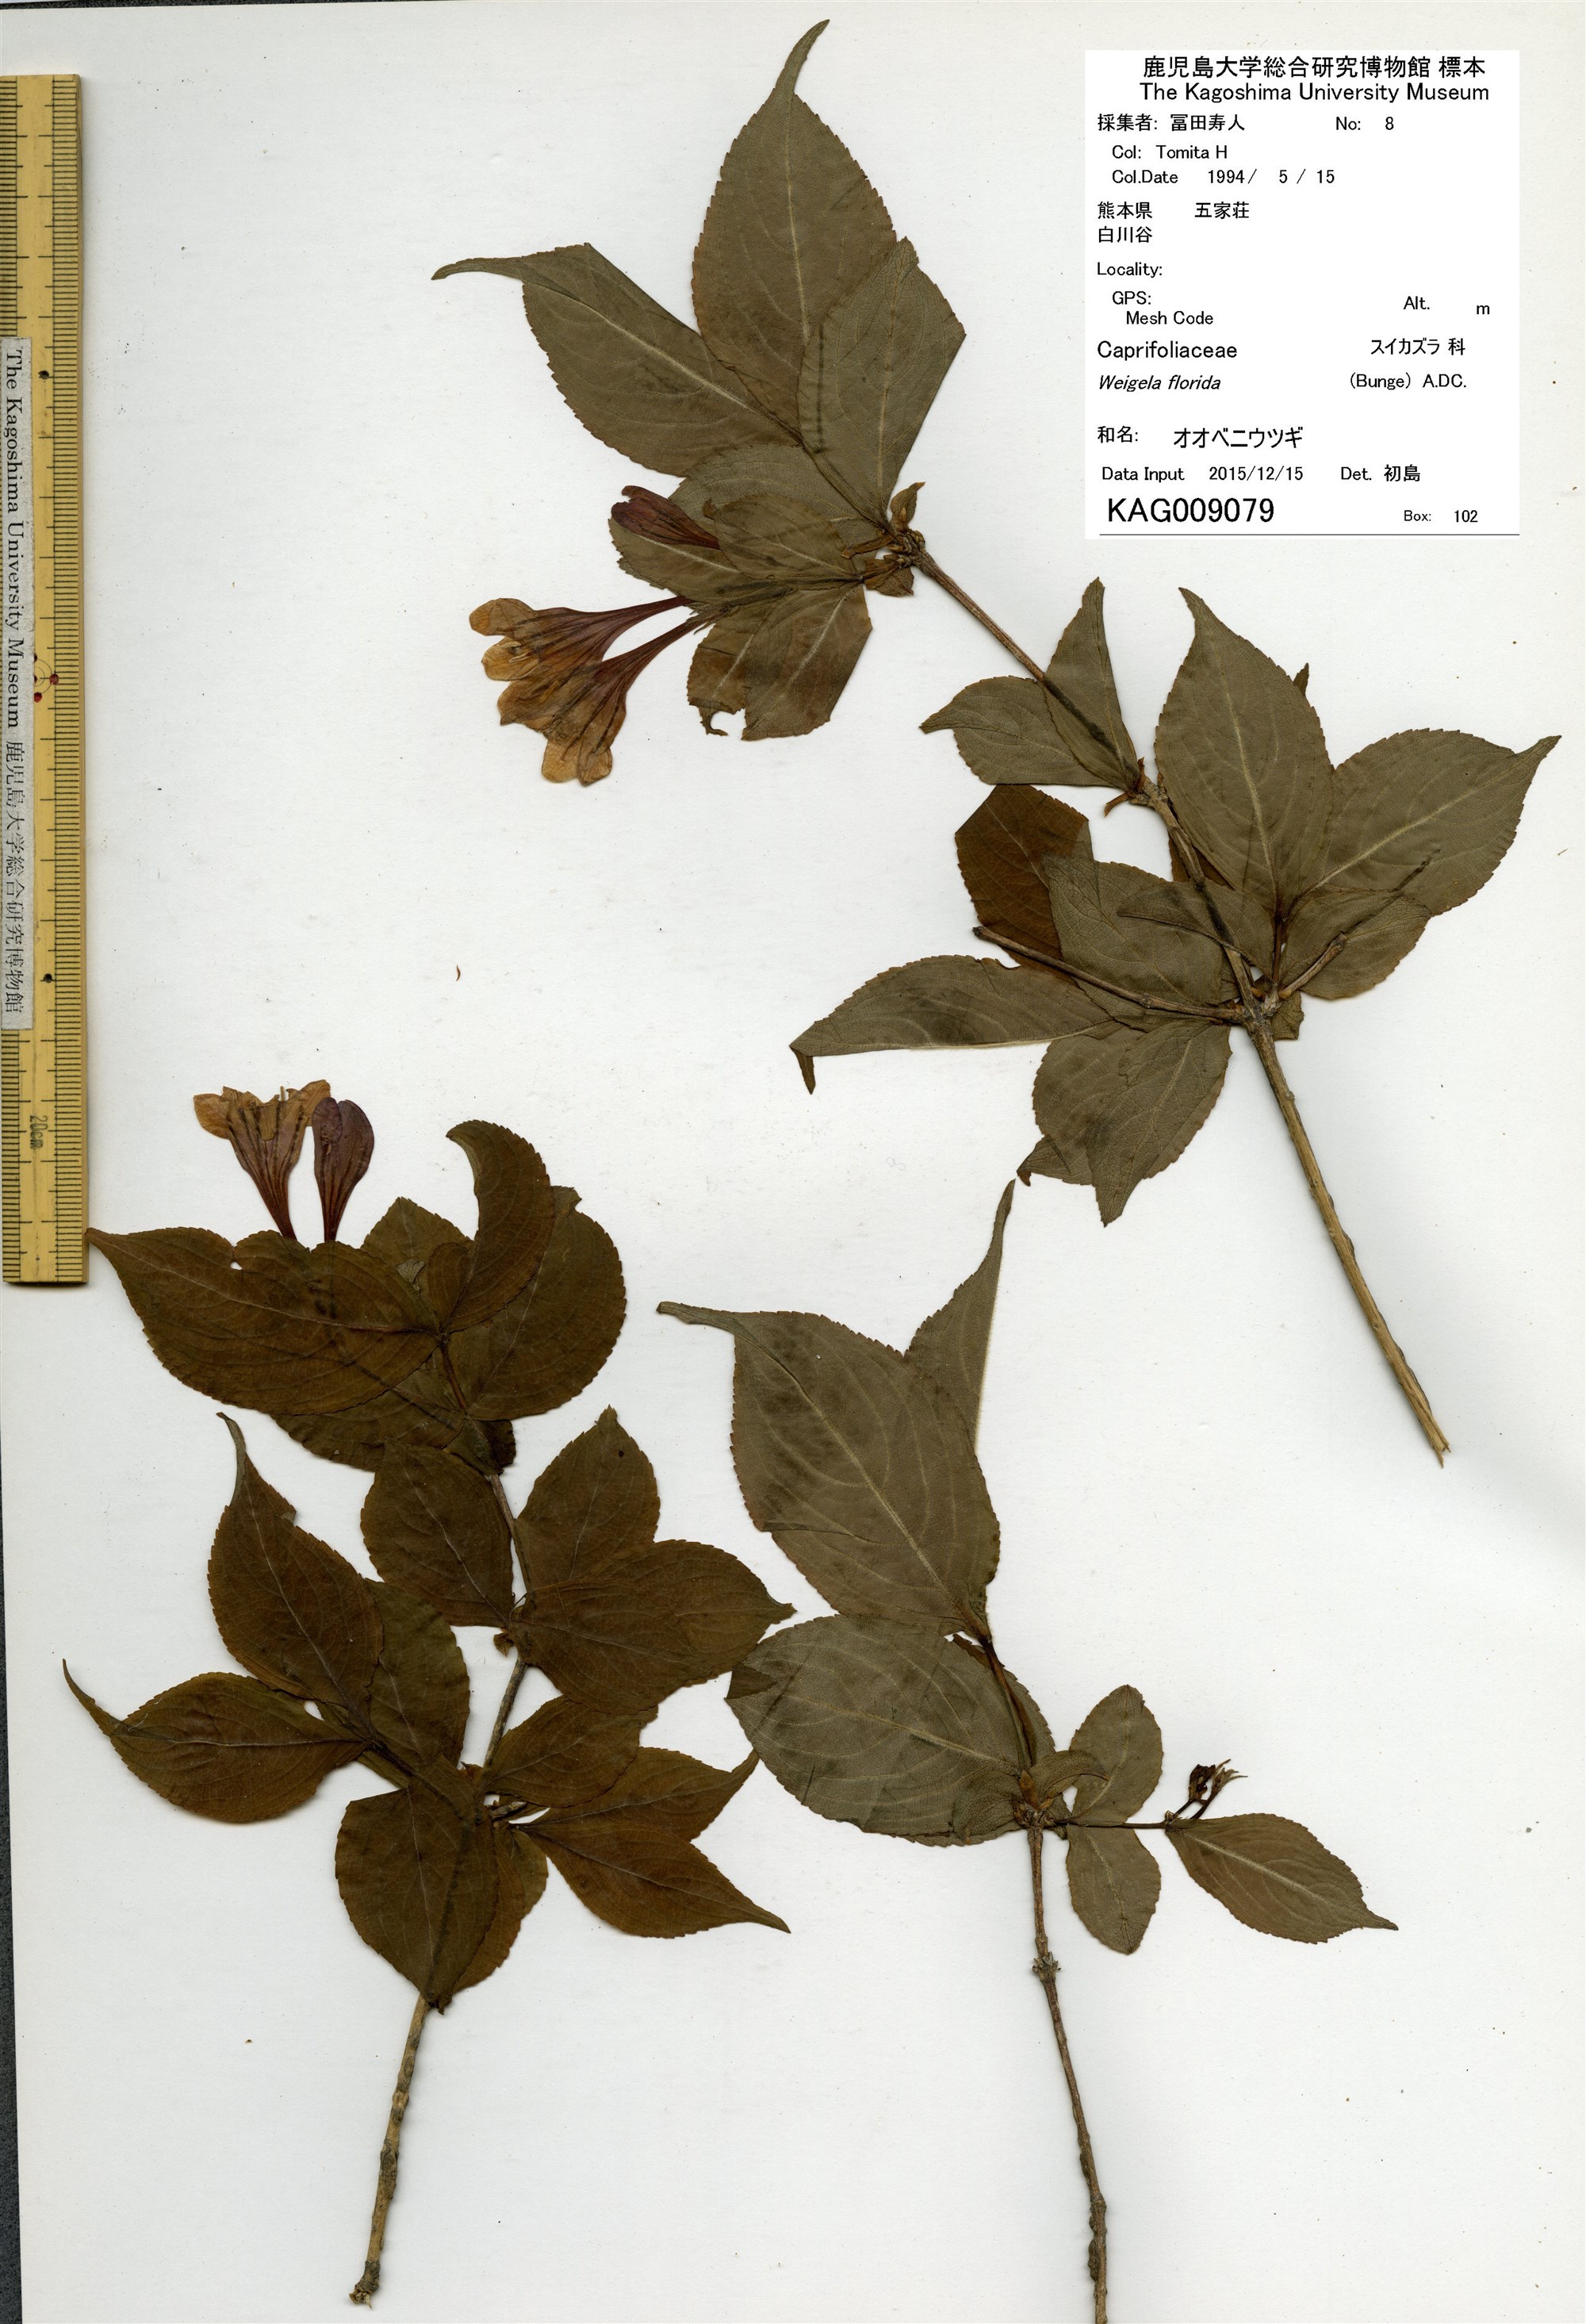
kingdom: Plantae
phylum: Tracheophyta
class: Magnoliopsida
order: Dipsacales
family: Caprifoliaceae
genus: Weigela
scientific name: Weigela florida
